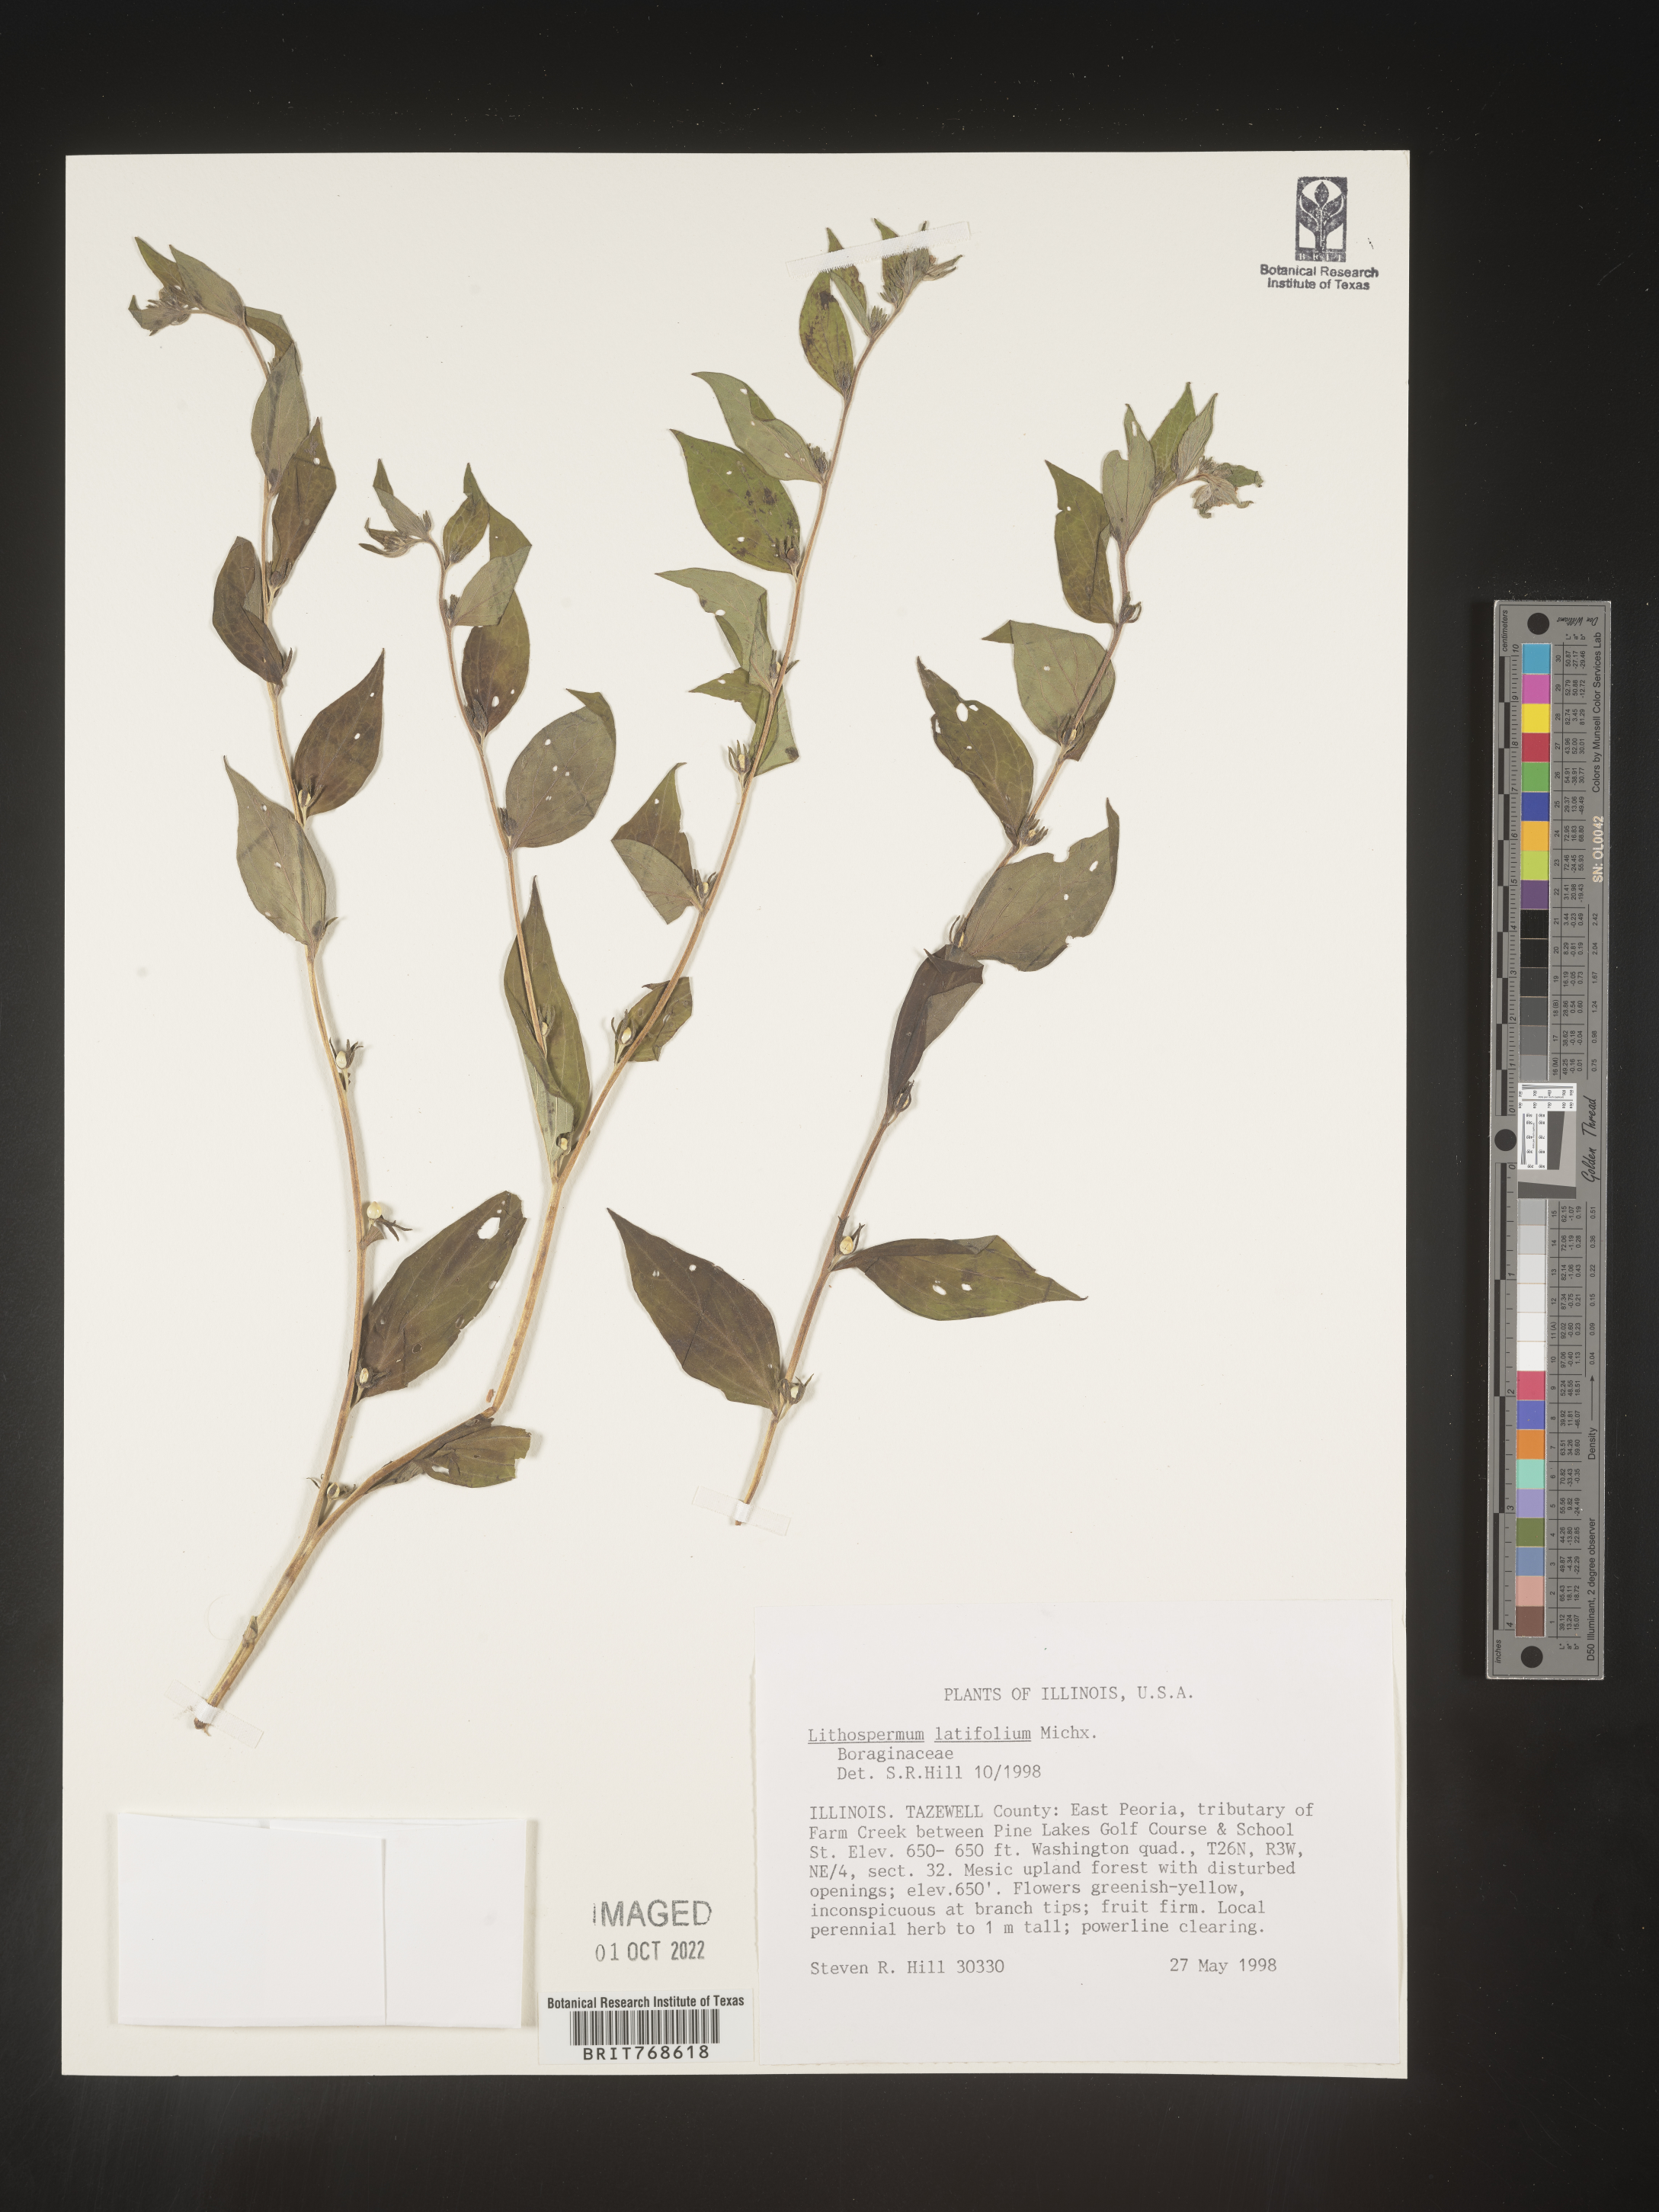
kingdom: Plantae
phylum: Tracheophyta
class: Magnoliopsida
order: Boraginales
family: Boraginaceae
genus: Lithospermum
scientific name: Lithospermum
